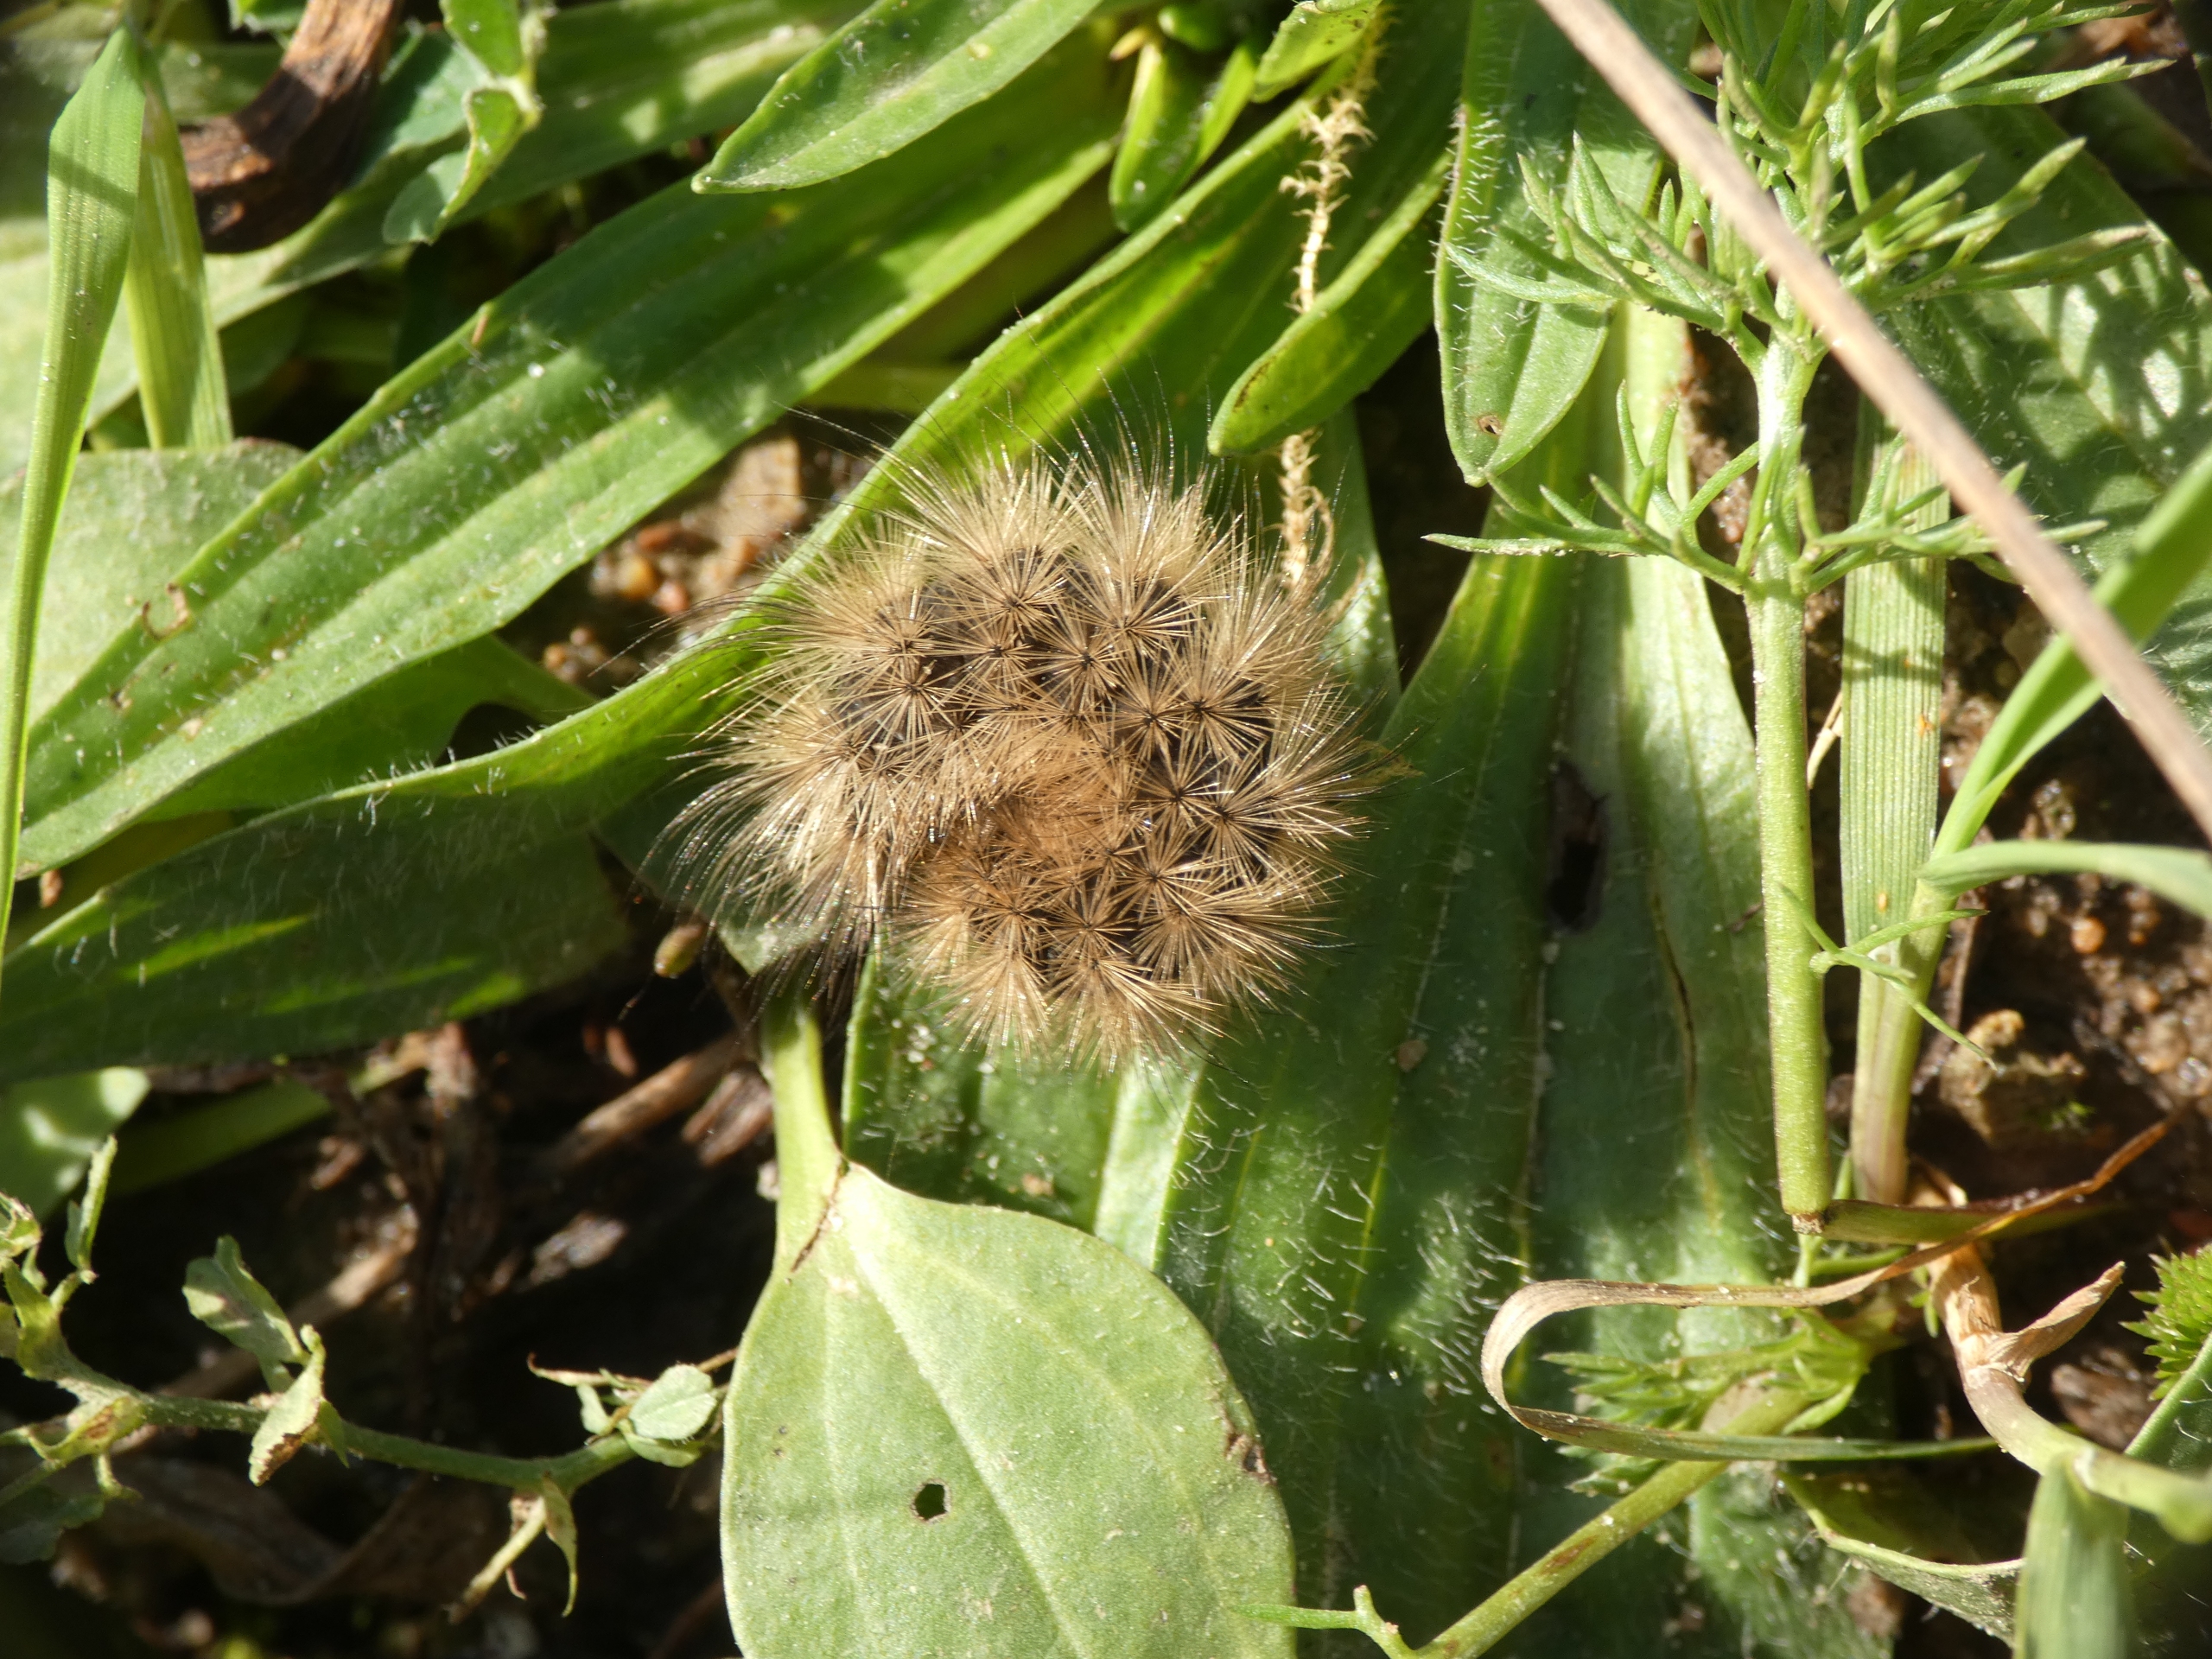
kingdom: Animalia
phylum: Arthropoda
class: Insecta
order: Lepidoptera
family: Erebidae
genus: Phragmatobia
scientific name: Phragmatobia fuliginosa
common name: Kanelbjørn
